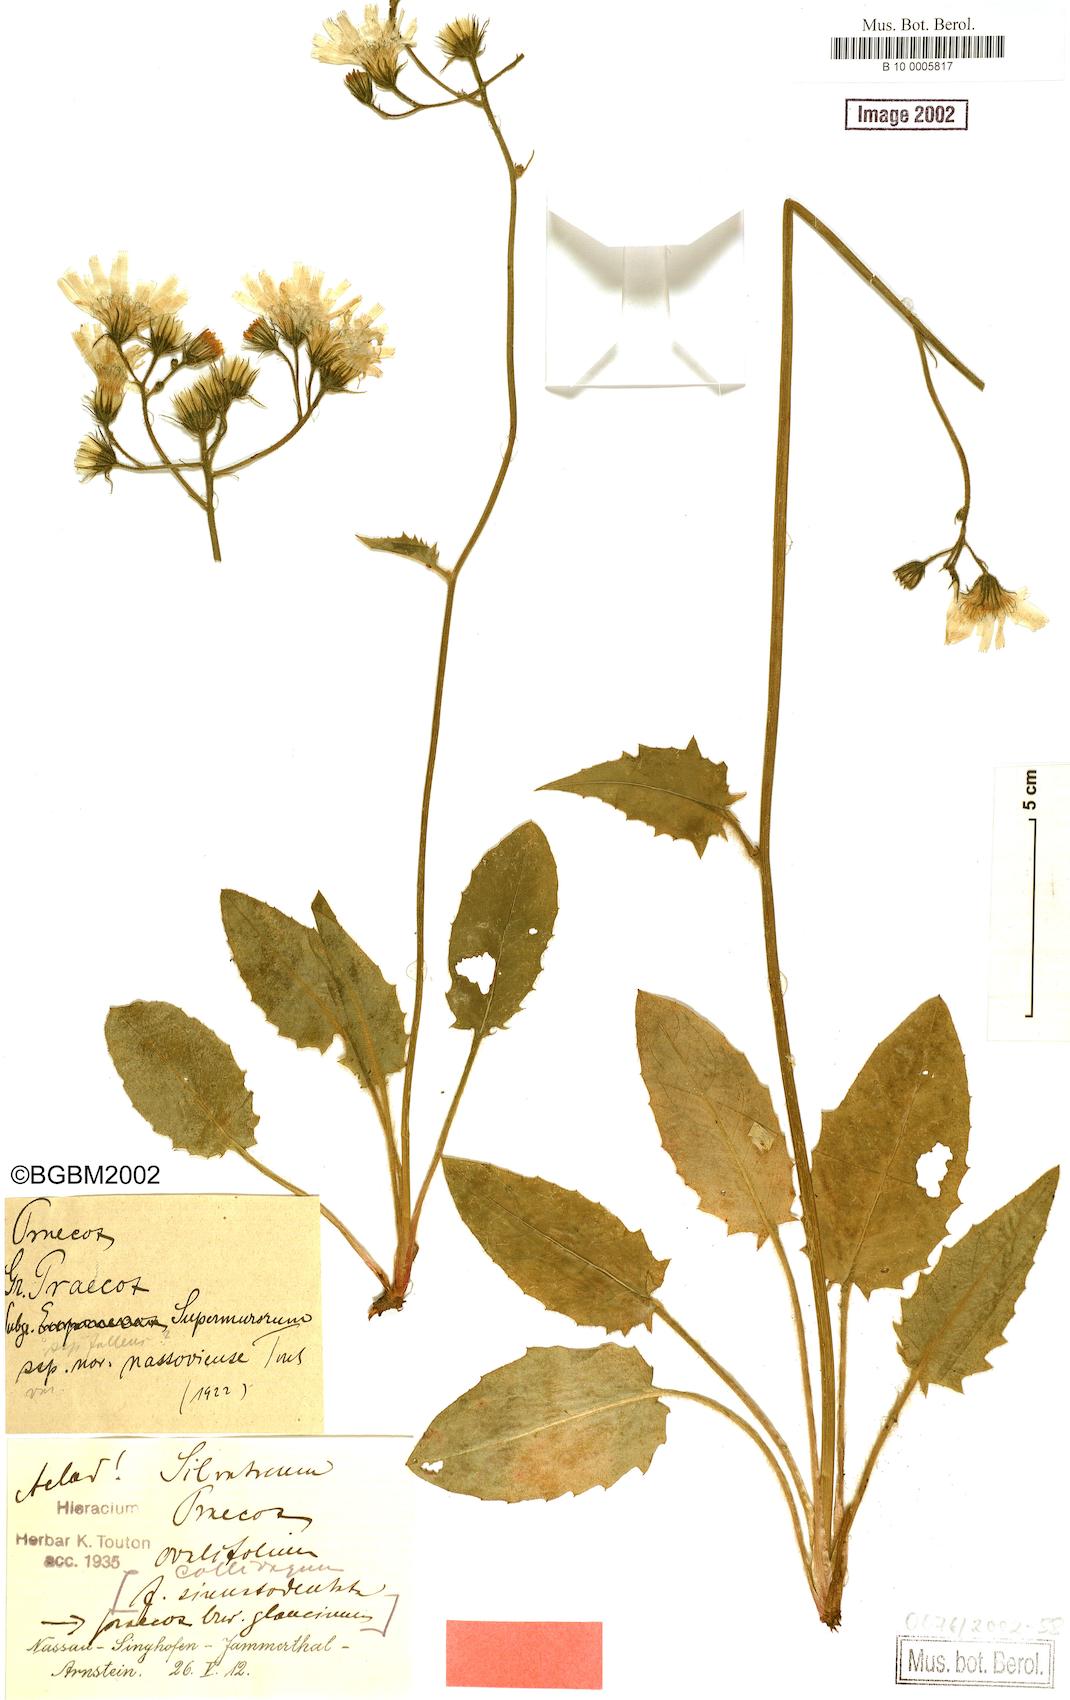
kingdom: Plantae
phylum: Tracheophyta
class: Magnoliopsida
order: Asterales
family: Asteraceae
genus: Hieracium
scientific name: Hieracium praecox
